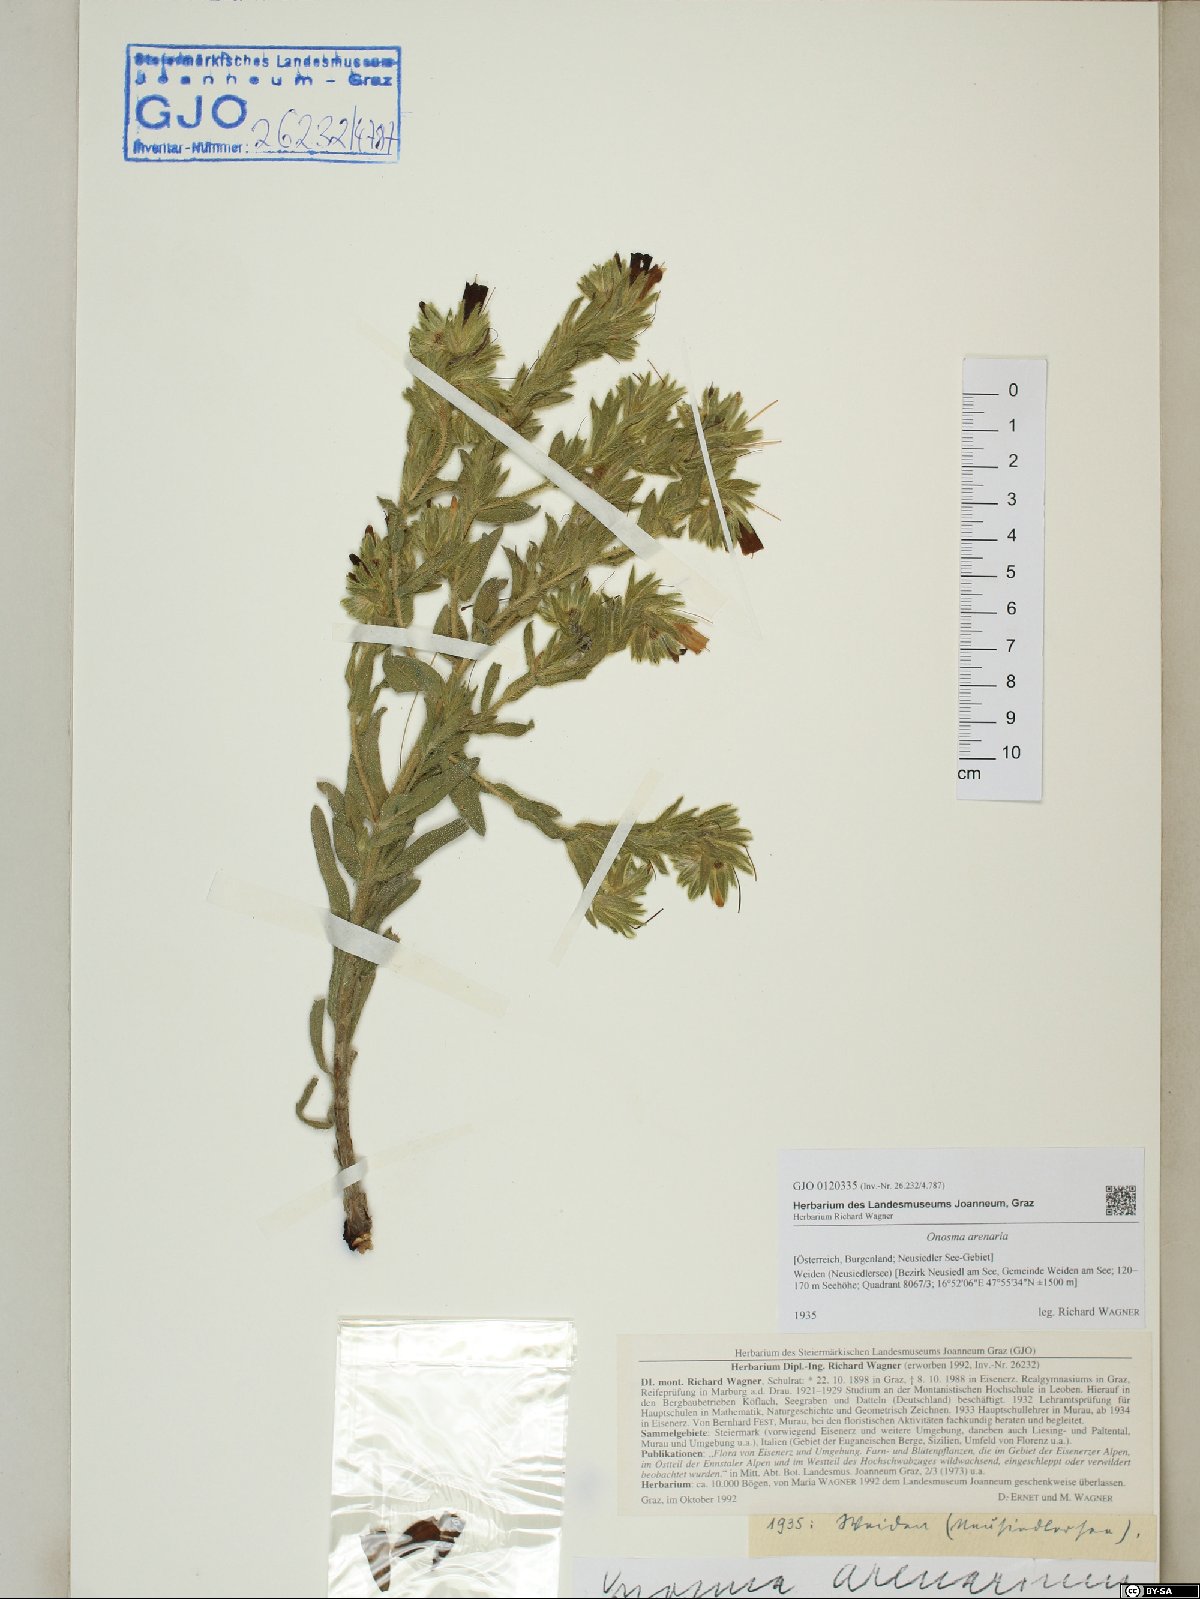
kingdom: Plantae
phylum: Tracheophyta
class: Magnoliopsida
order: Boraginales
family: Boraginaceae
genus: Onosma
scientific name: Onosma arenaria
